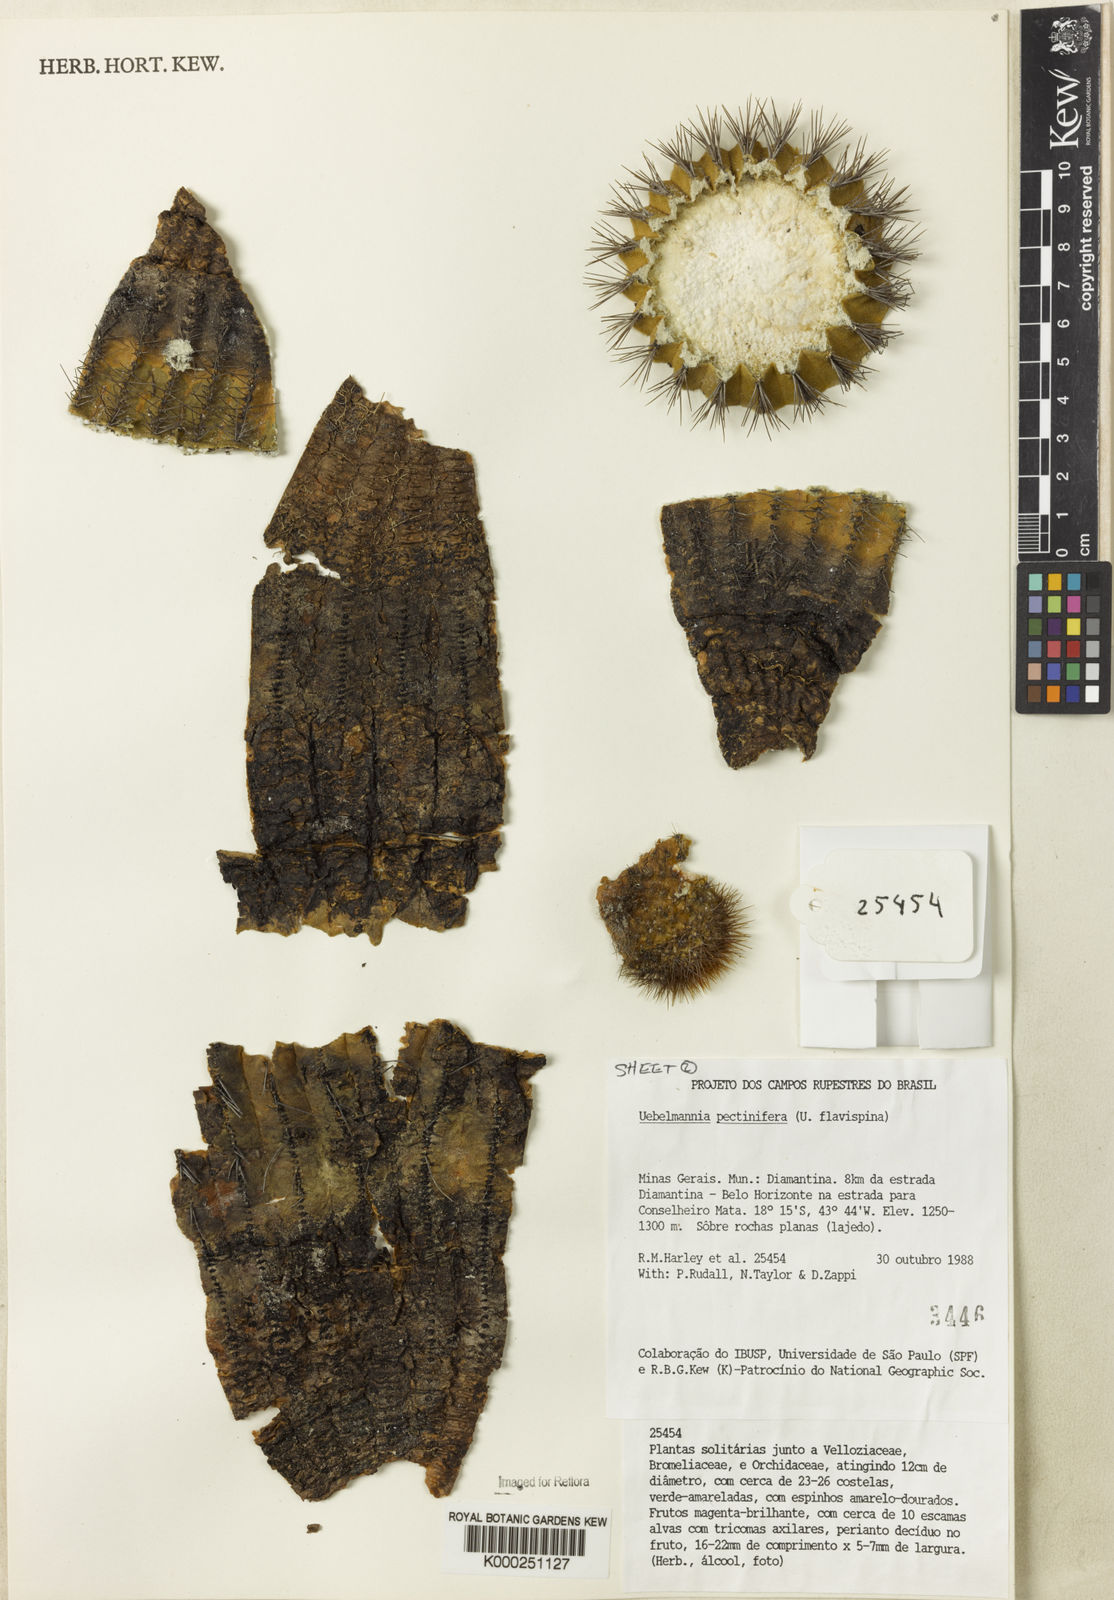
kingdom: Plantae
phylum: Tracheophyta
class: Magnoliopsida
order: Caryophyllales
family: Cactaceae
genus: Uebelmannia
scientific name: Uebelmannia pectinifera
